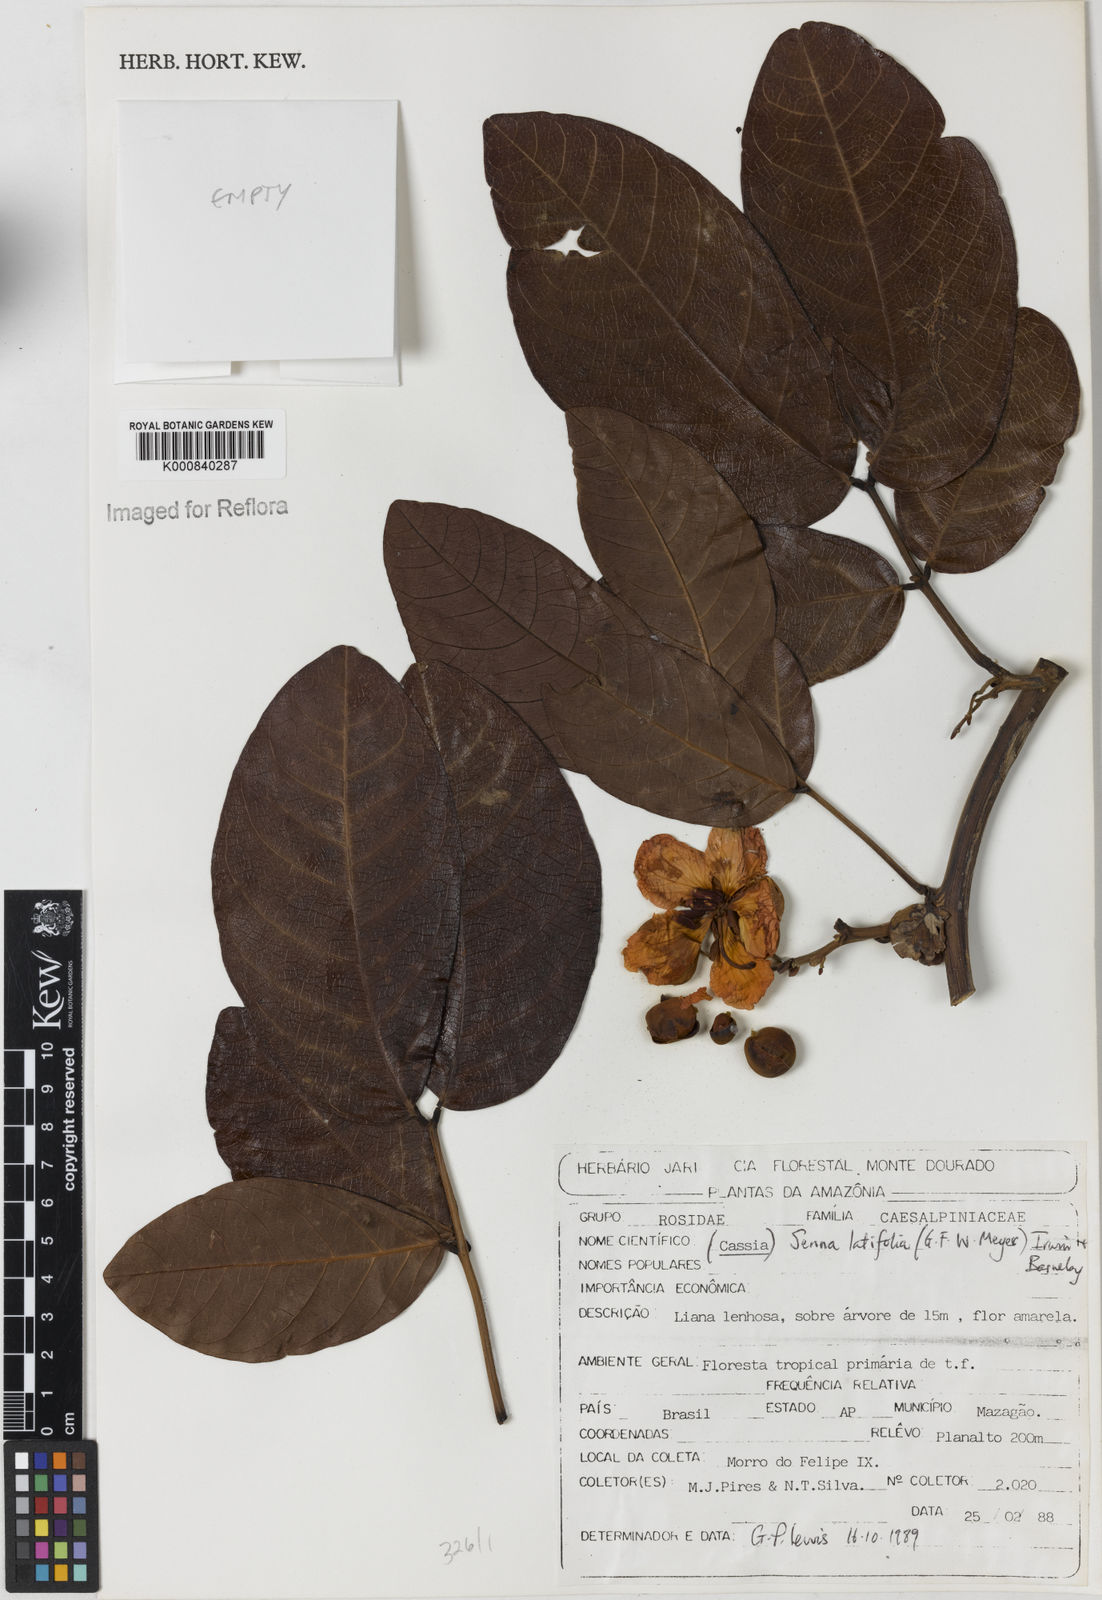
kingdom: Plantae
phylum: Tracheophyta
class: Magnoliopsida
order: Fabales
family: Fabaceae
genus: Senna
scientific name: Senna latifolia
